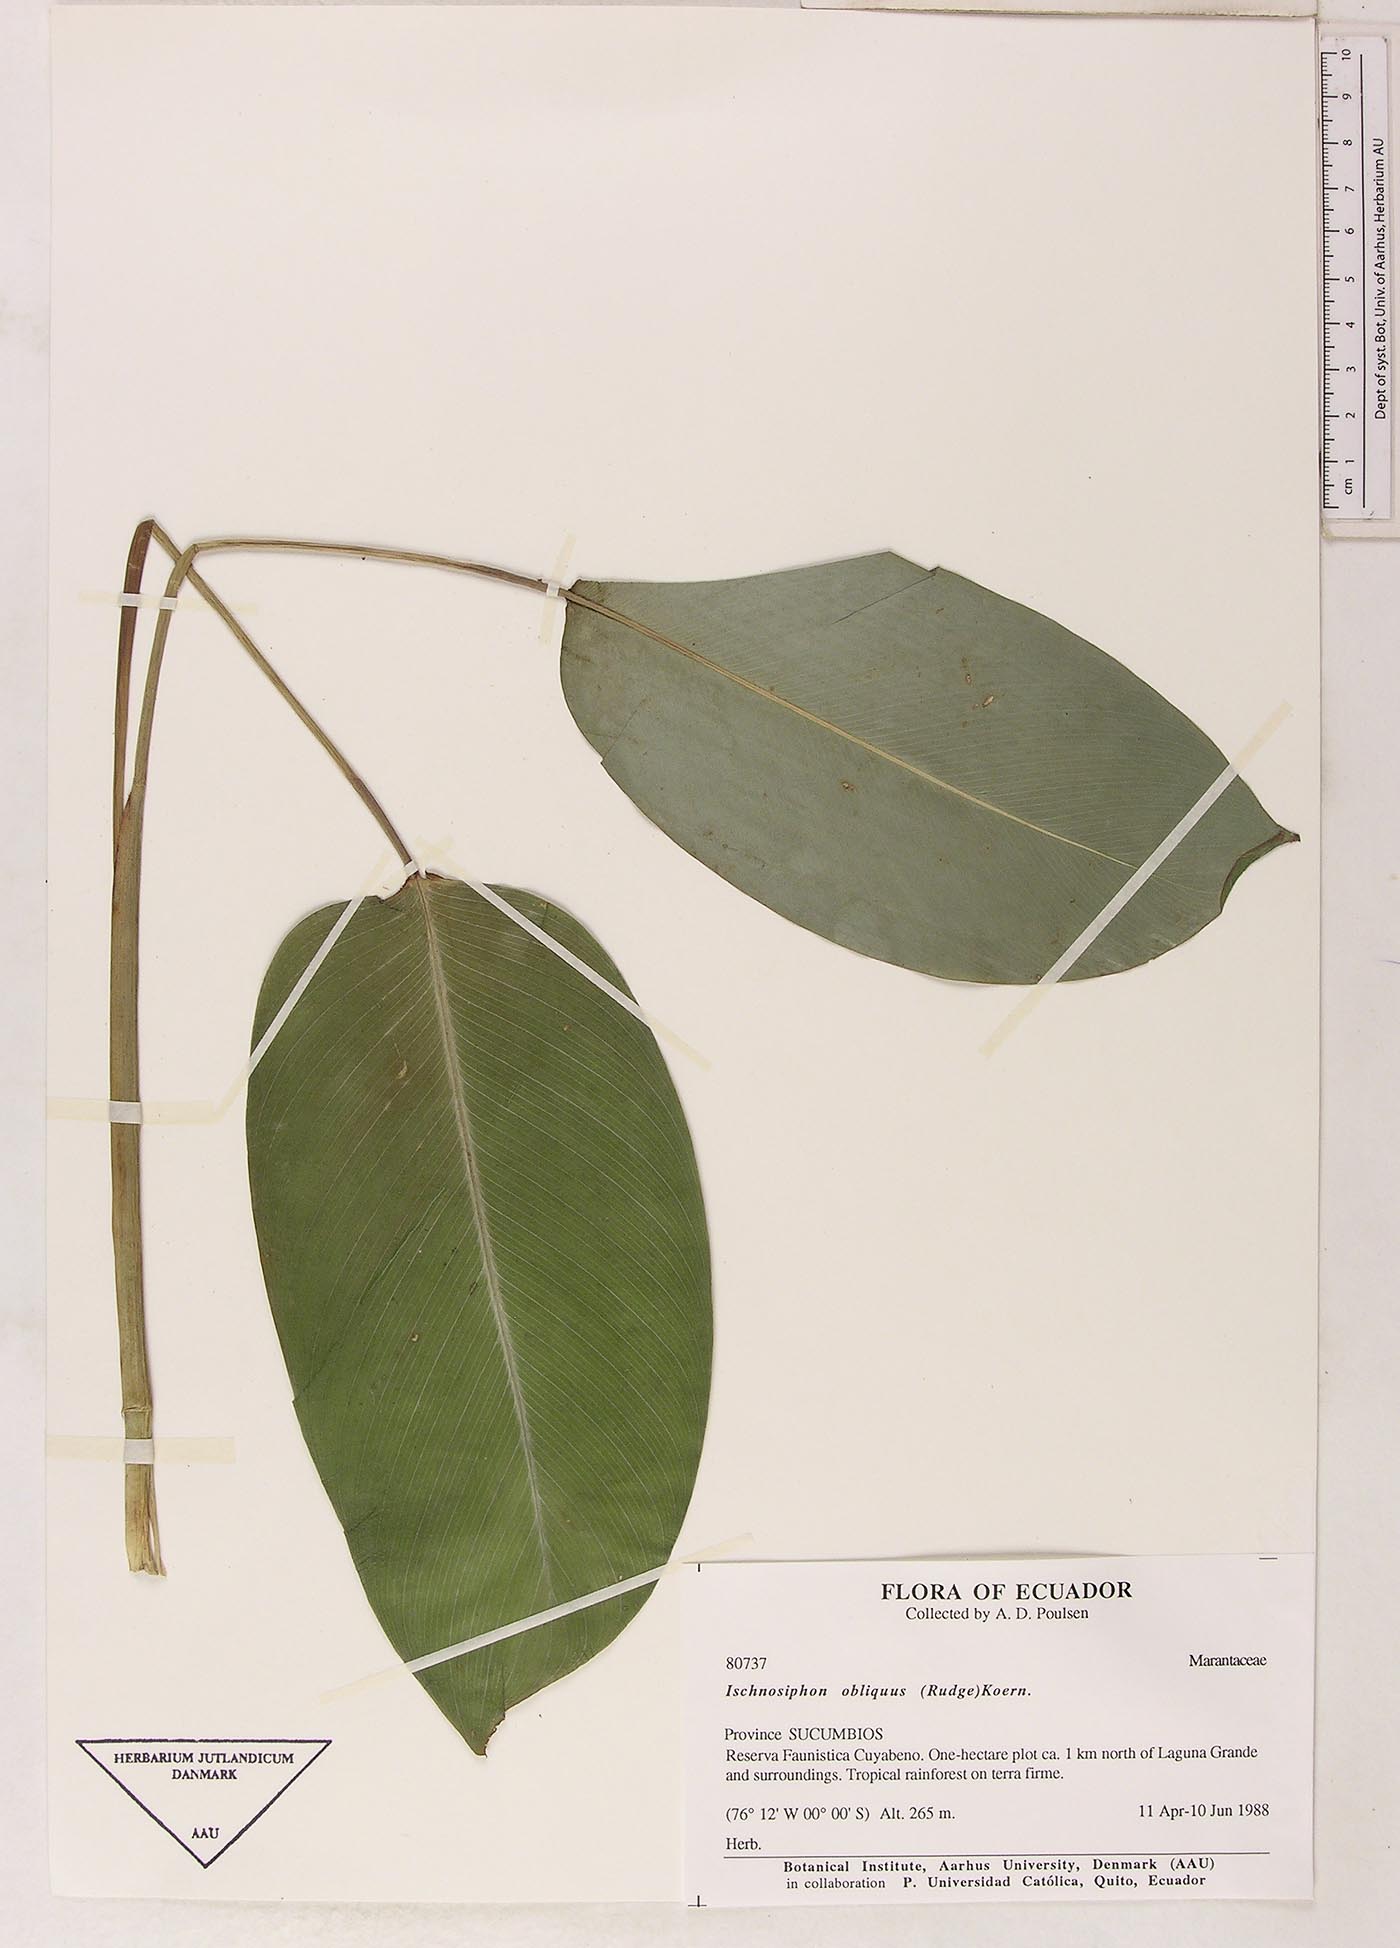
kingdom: Plantae
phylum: Tracheophyta
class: Liliopsida
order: Zingiberales
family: Marantaceae
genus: Ischnosiphon
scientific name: Ischnosiphon obliquus
